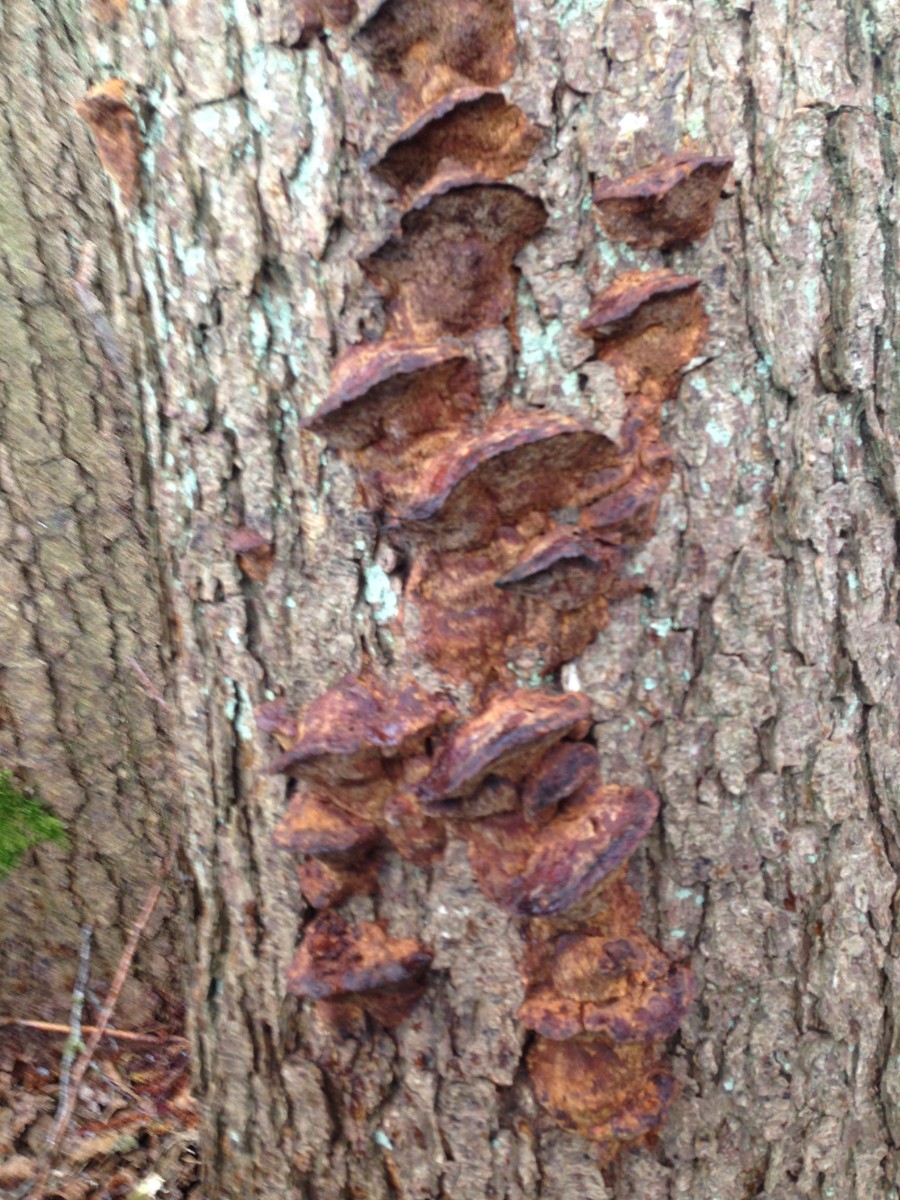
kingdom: Fungi
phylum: Basidiomycota
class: Agaricomycetes
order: Hymenochaetales
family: Hymenochaetaceae
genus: Xanthoporia
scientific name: Xanthoporia radiata
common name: elle-spejlporesvamp
